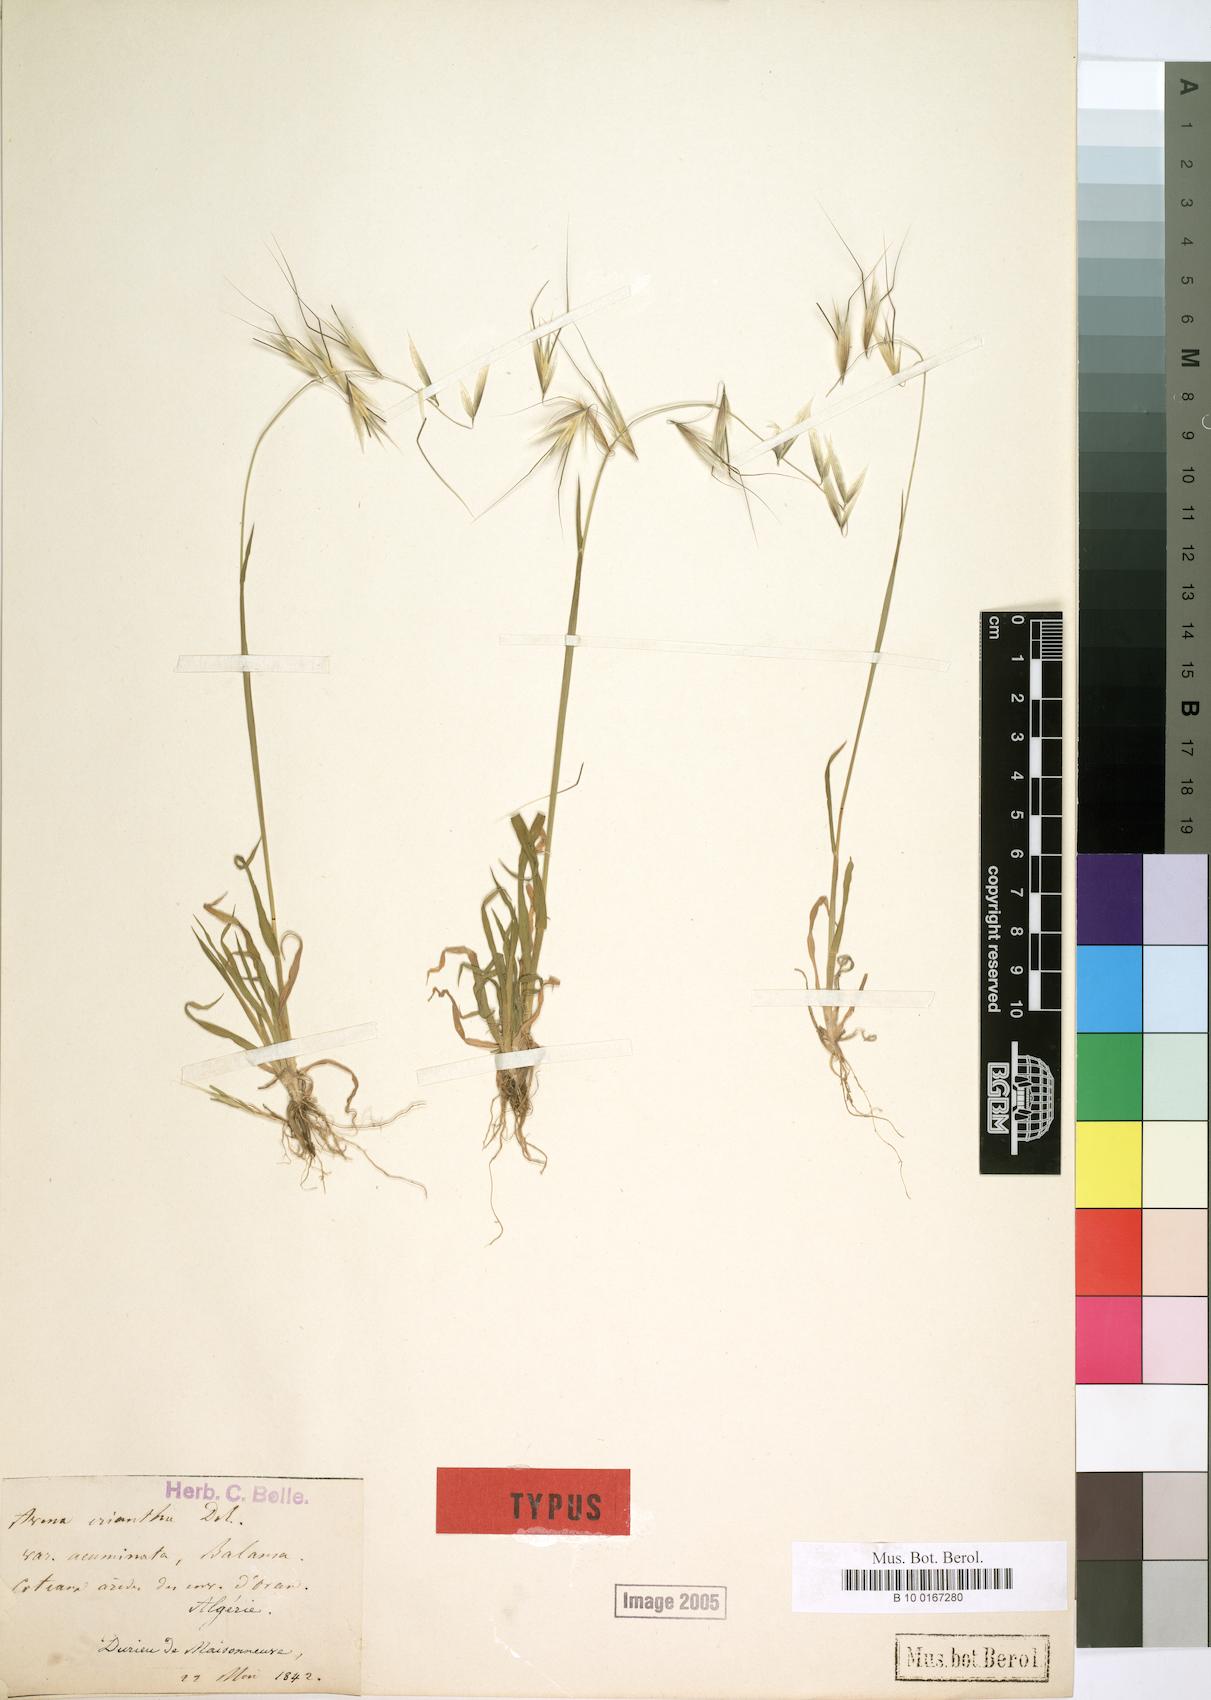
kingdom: Plantae
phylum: Tracheophyta
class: Liliopsida
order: Poales
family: Poaceae
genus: Avena
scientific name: Avena eriantha
